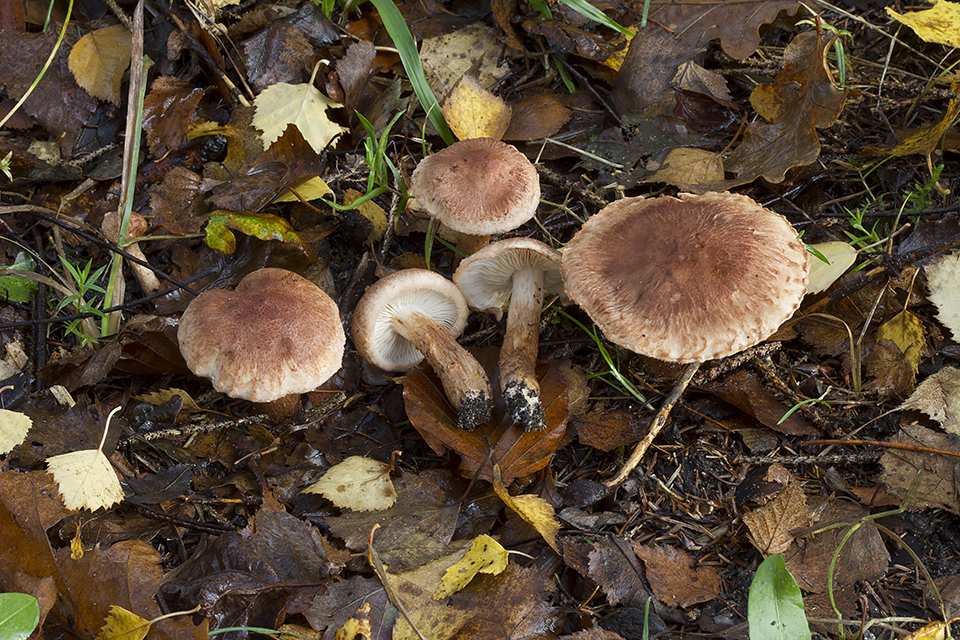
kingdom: Fungi
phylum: Basidiomycota
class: Agaricomycetes
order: Agaricales
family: Tricholomataceae
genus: Tricholoma
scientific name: Tricholoma vaccinum
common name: ko-ridderhat
